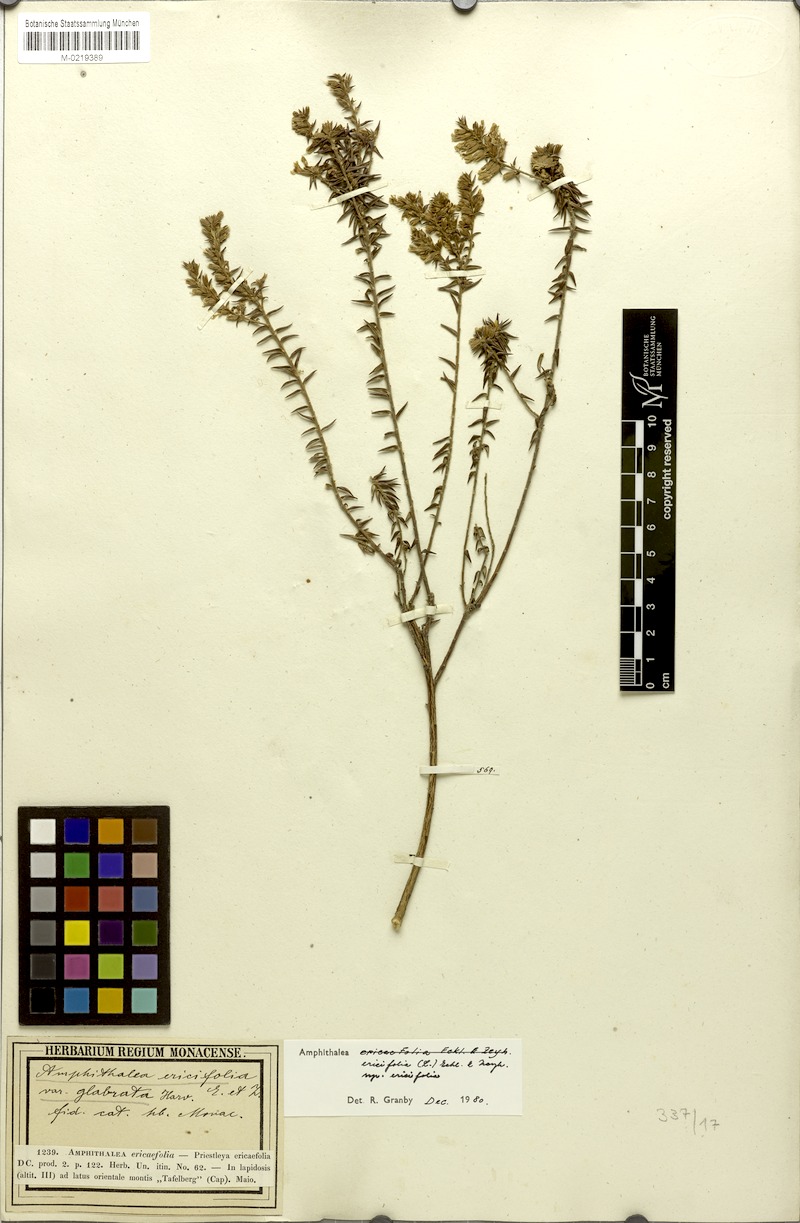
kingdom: Plantae
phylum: Tracheophyta
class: Magnoliopsida
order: Fabales
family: Fabaceae
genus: Amphithalea
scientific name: Amphithalea ericifolia
